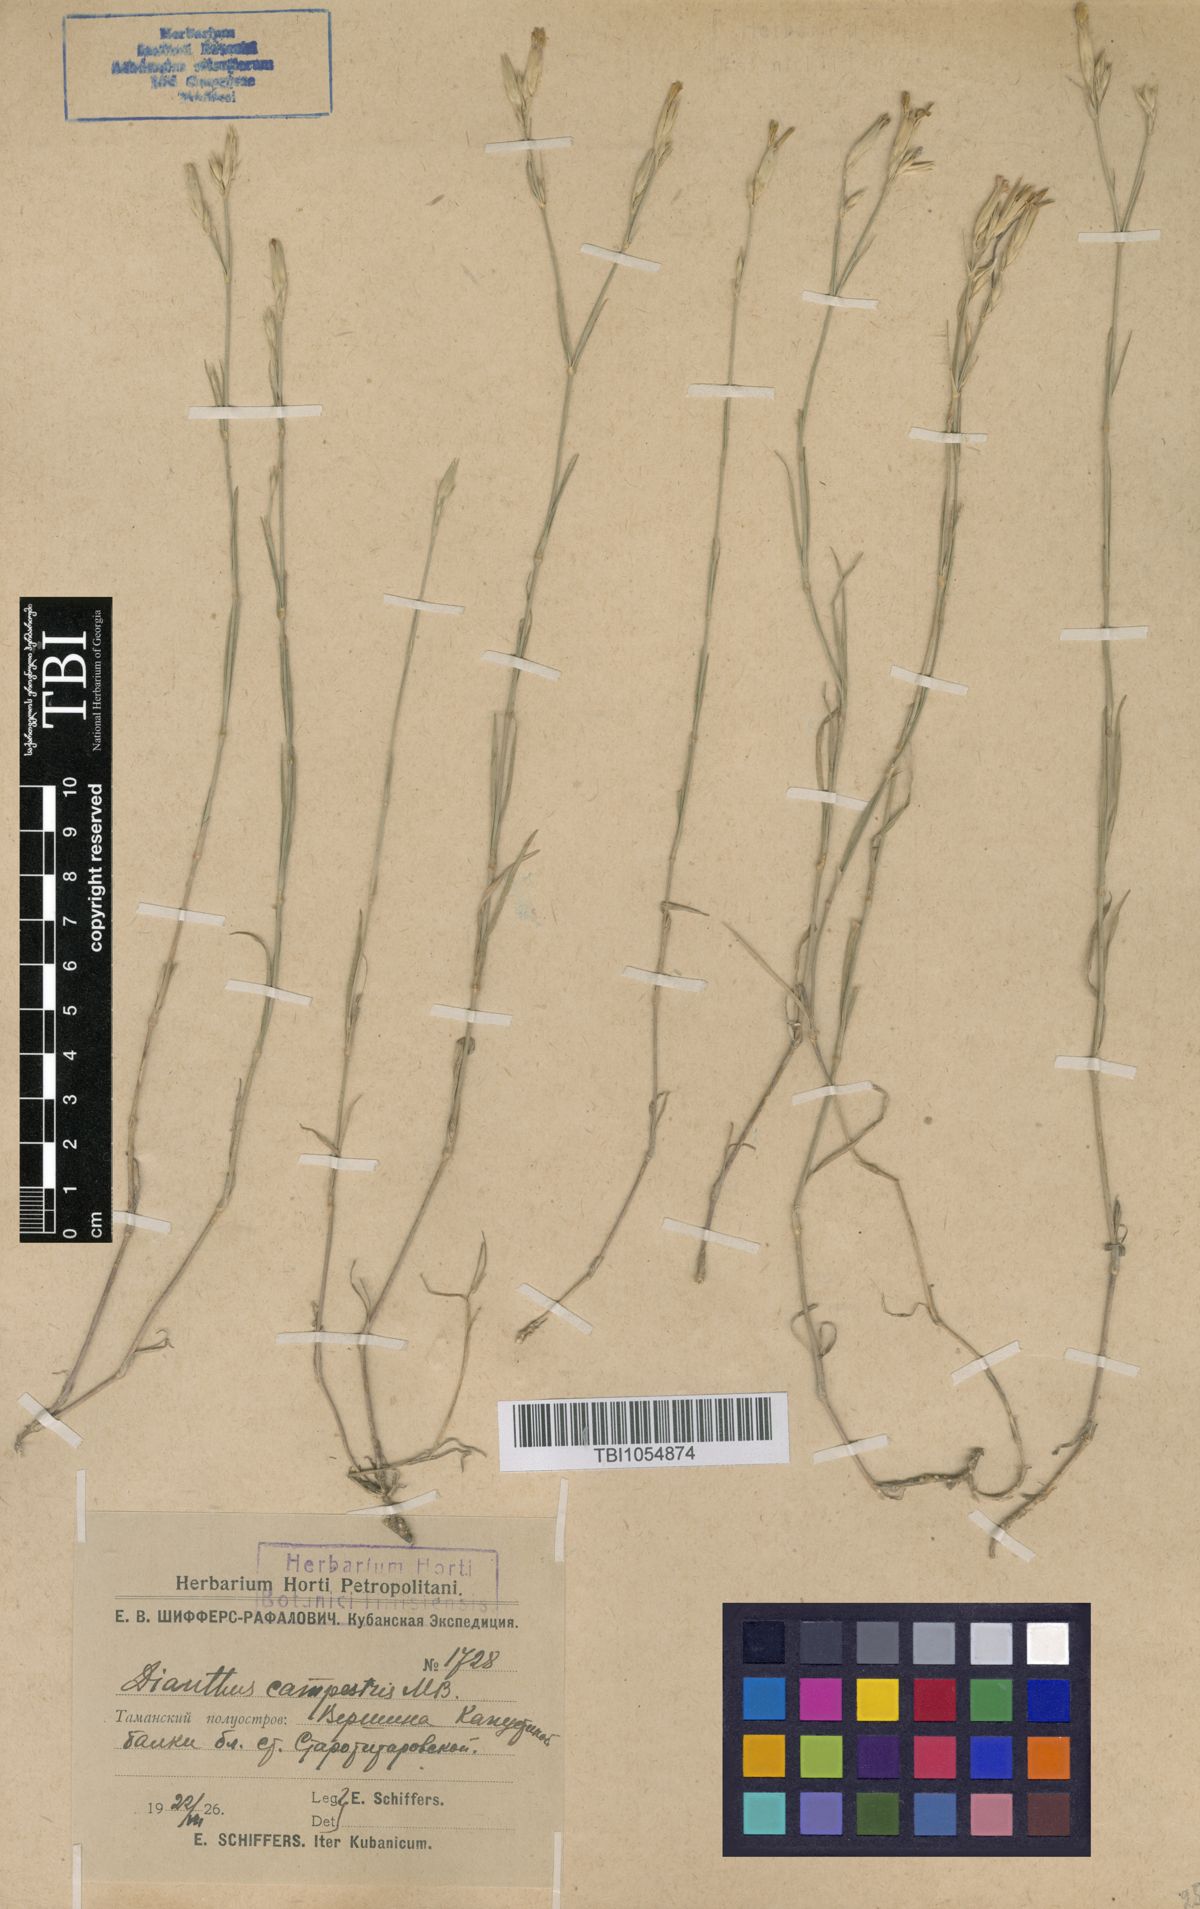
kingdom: Plantae
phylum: Tracheophyta
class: Magnoliopsida
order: Caryophyllales
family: Caryophyllaceae
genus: Dianthus
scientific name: Dianthus campestris
